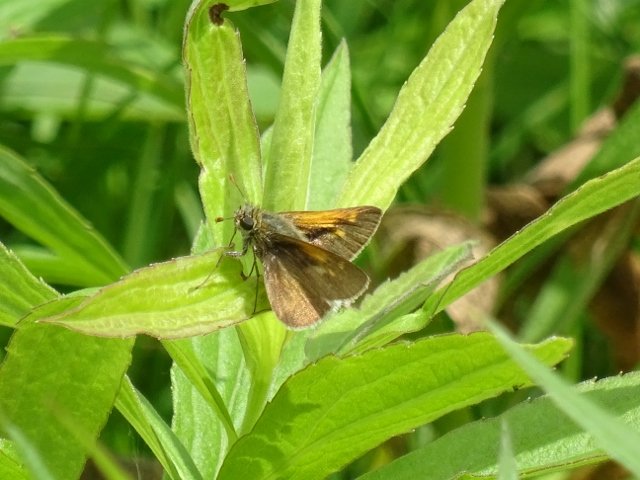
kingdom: Animalia
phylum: Arthropoda
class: Insecta
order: Lepidoptera
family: Hesperiidae
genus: Polites
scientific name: Polites themistocles
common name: Tawny-edged Skipper
